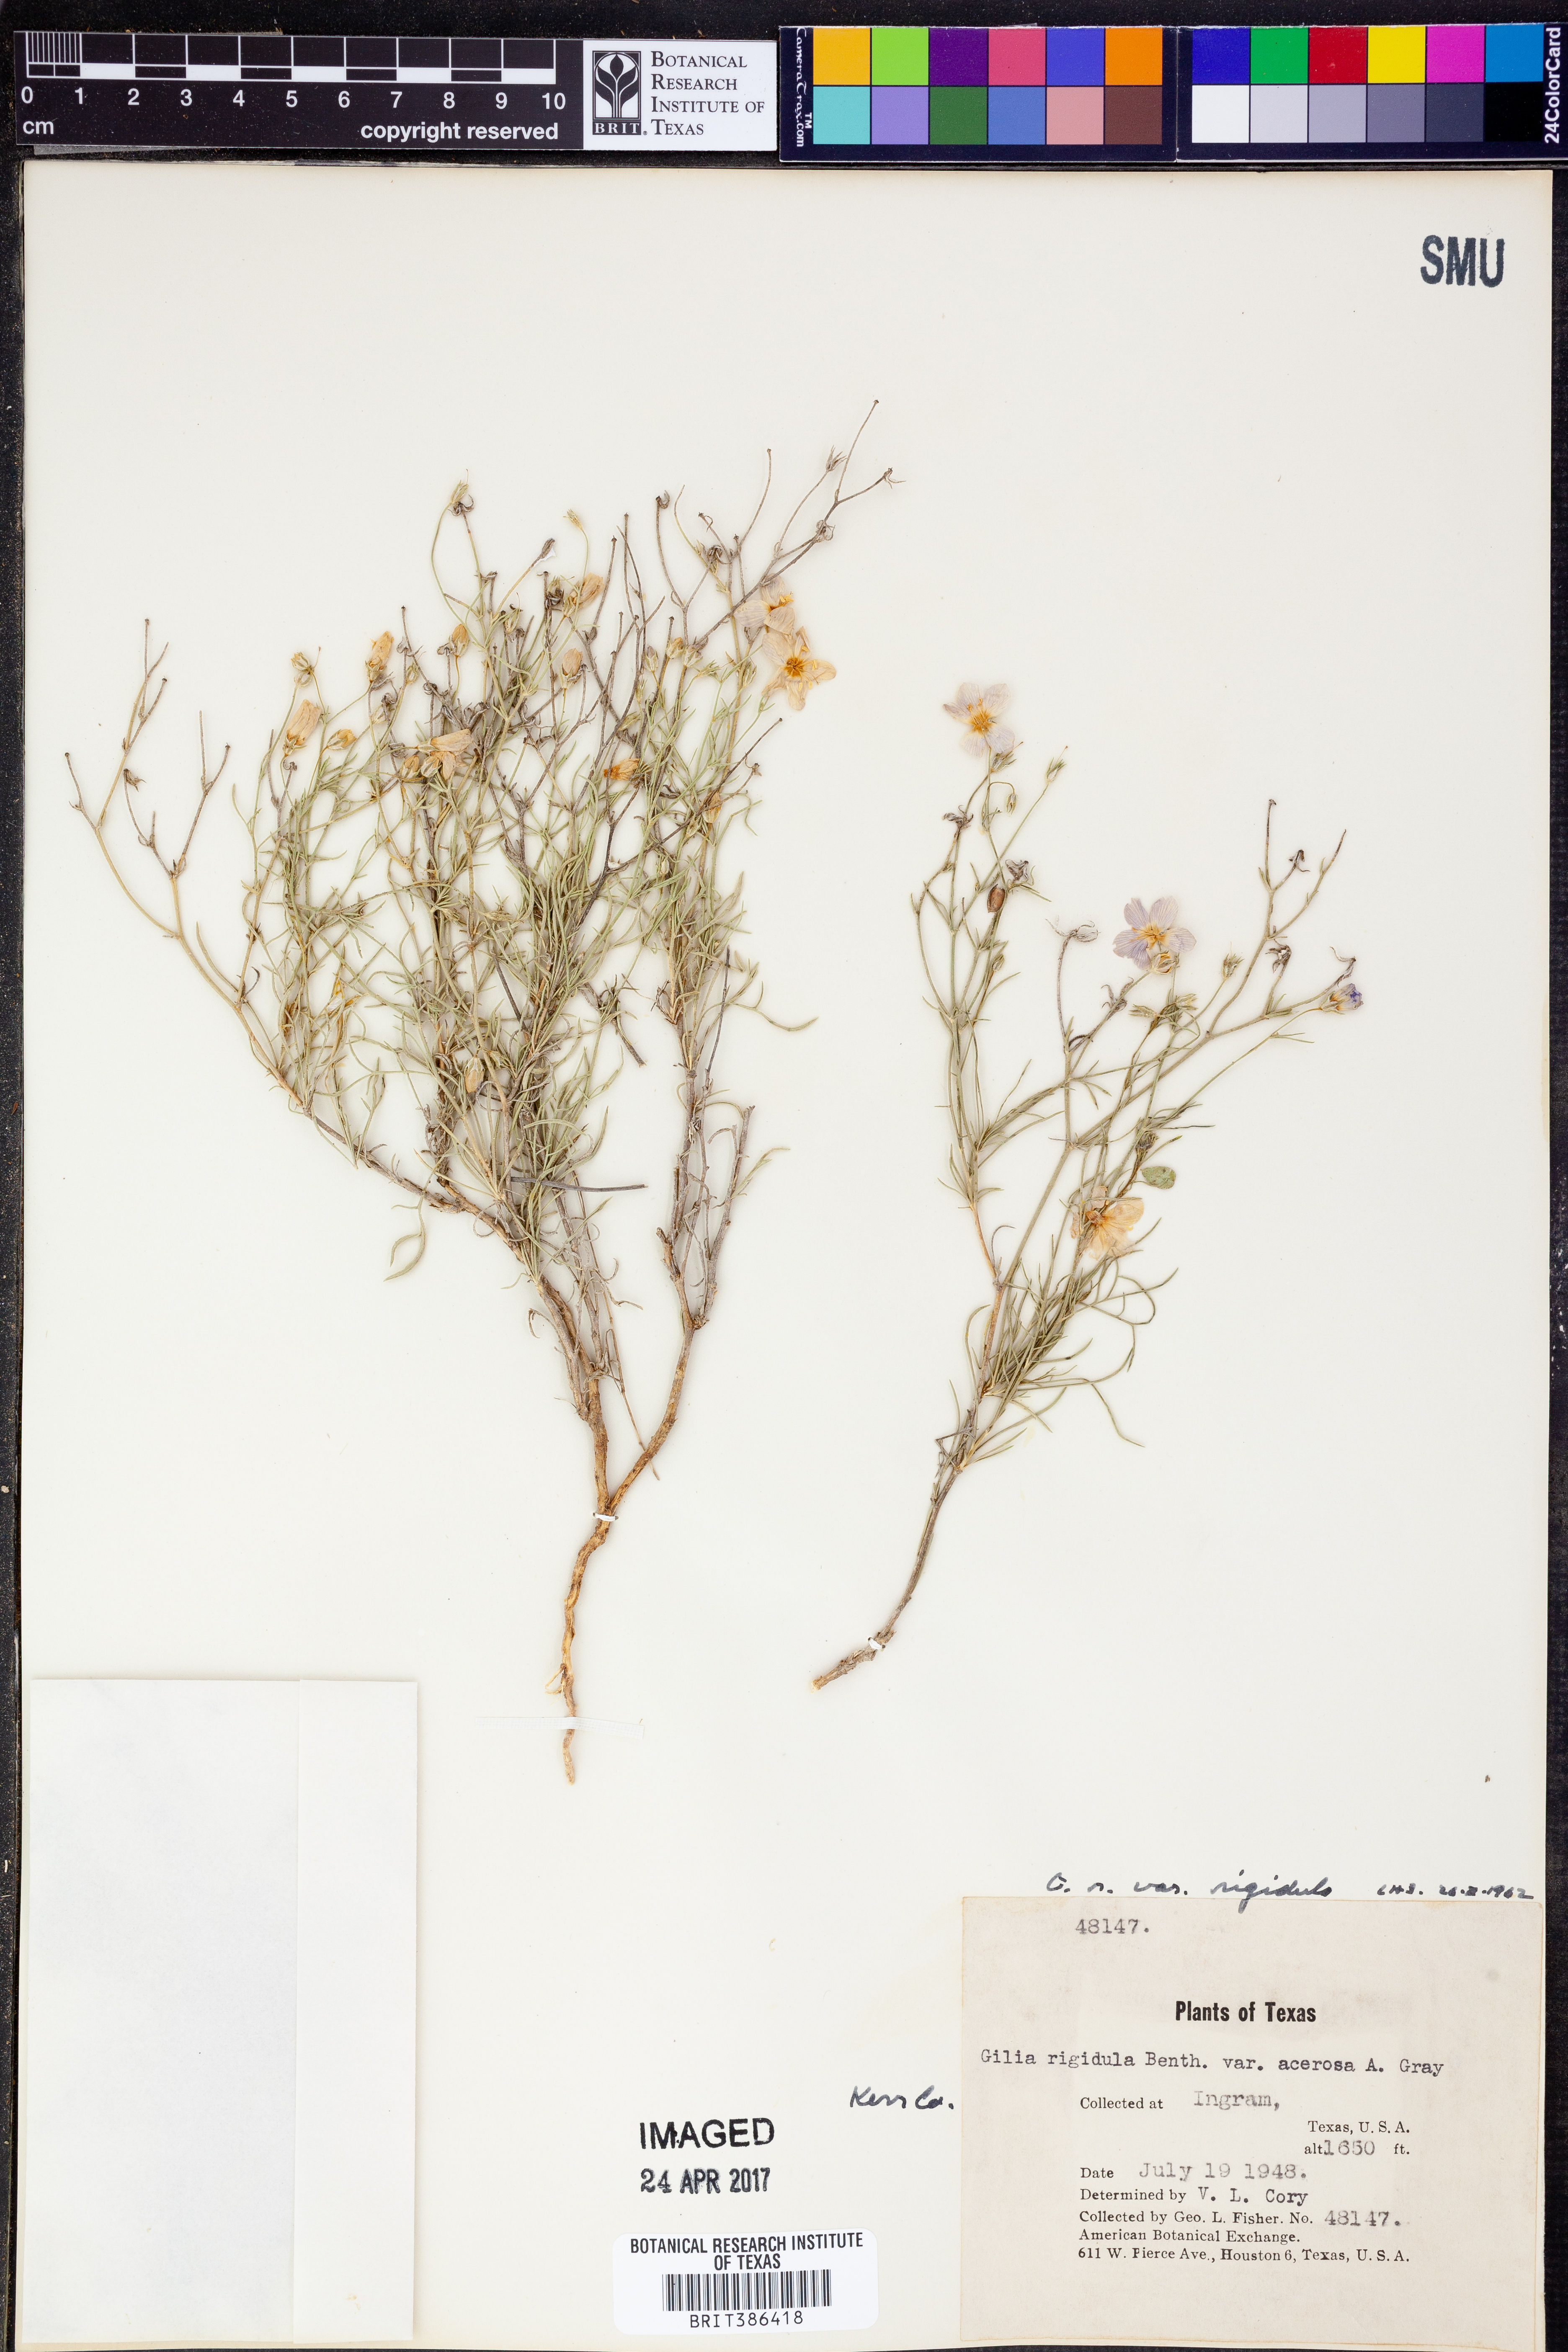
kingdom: Plantae
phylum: Tracheophyta
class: Magnoliopsida
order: Ericales
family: Polemoniaceae
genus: Giliastrum
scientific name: Giliastrum acerosum
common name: Bluebowls
